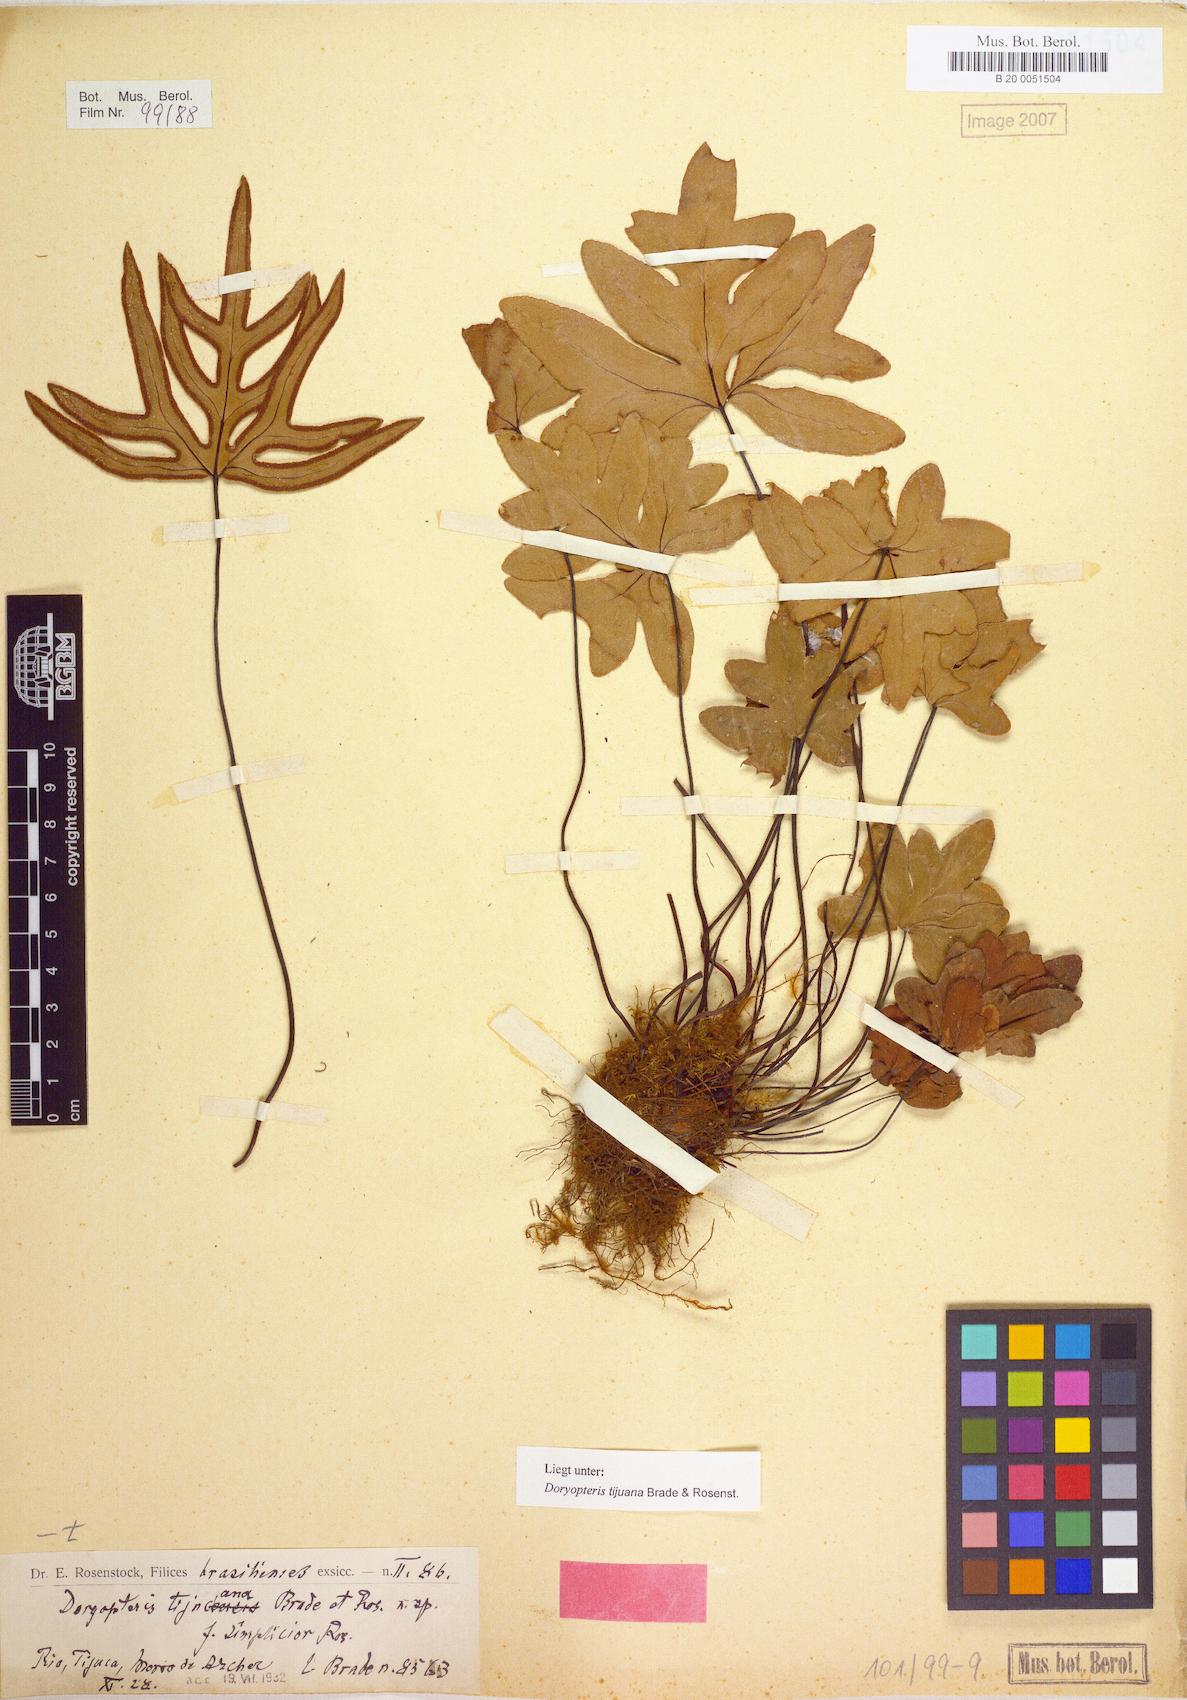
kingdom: Plantae
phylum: Tracheophyta
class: Polypodiopsida
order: Polypodiales
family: Pteridaceae
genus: Lytoneuron
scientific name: Lytoneuron tijucanum
